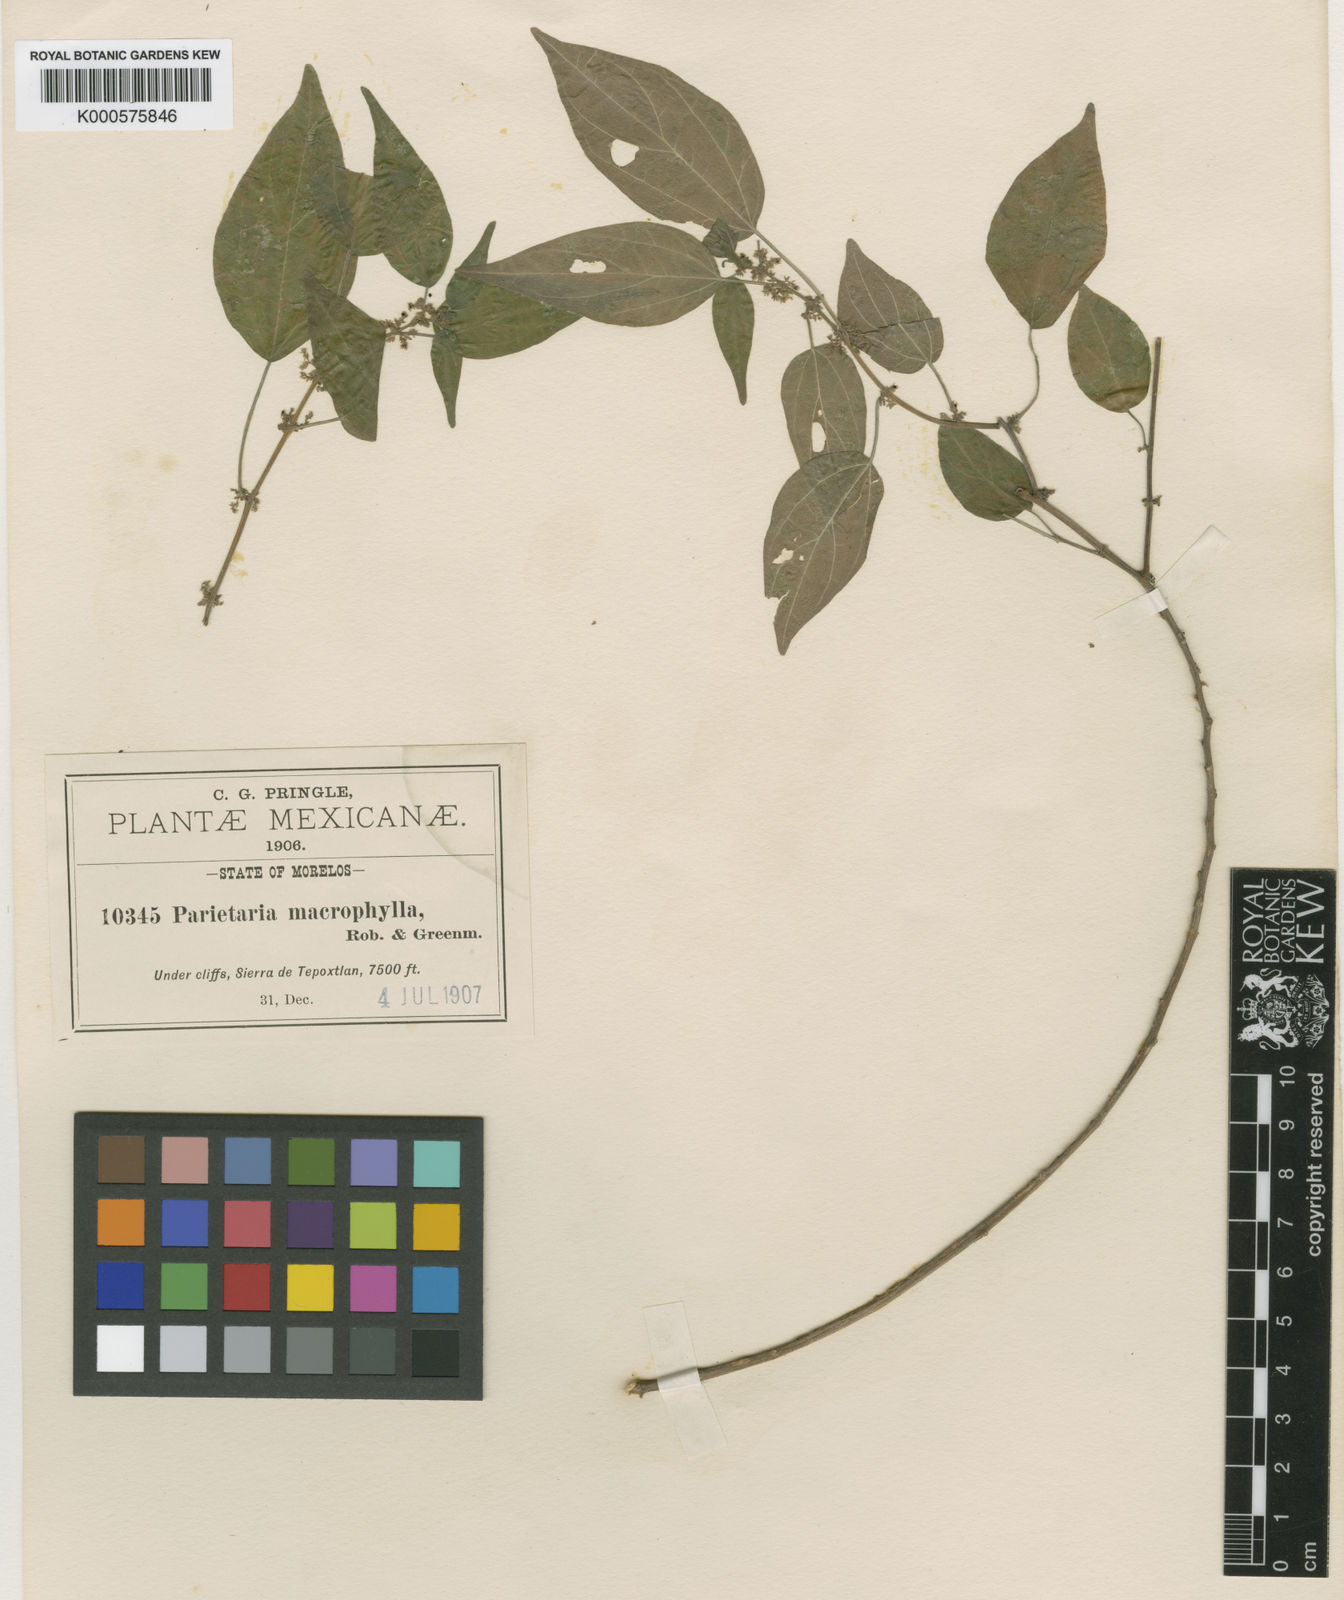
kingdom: Plantae
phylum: Tracheophyta
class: Magnoliopsida
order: Rosales
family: Urticaceae
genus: Parietaria
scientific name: Parietaria macrophylla
